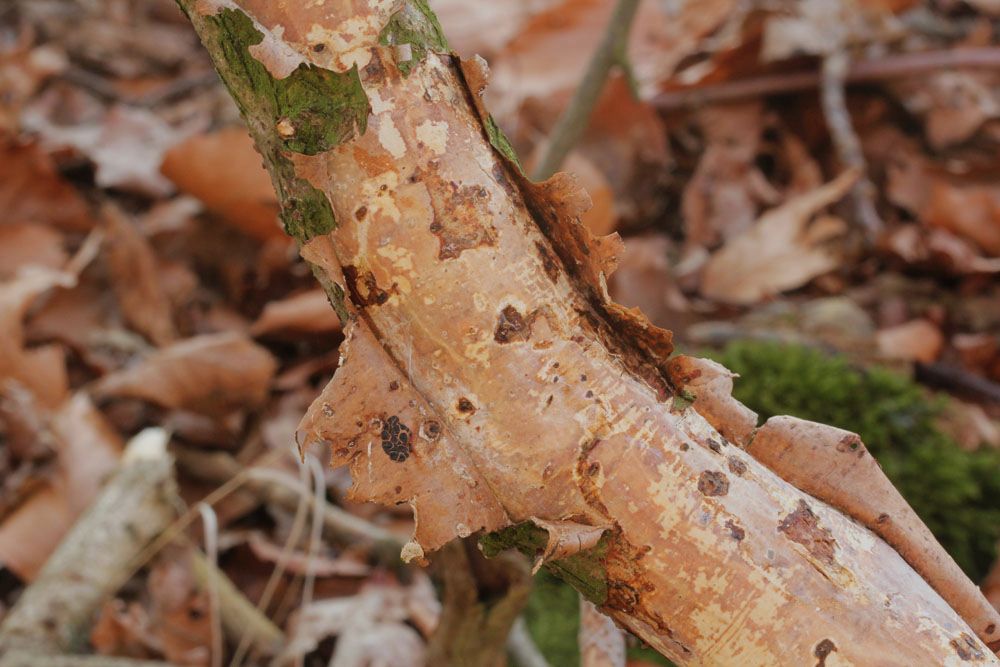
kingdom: Fungi
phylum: Basidiomycota
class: Agaricomycetes
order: Corticiales
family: Vuilleminiaceae
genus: Vuilleminia
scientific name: Vuilleminia comedens
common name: almindelig barksprænger
